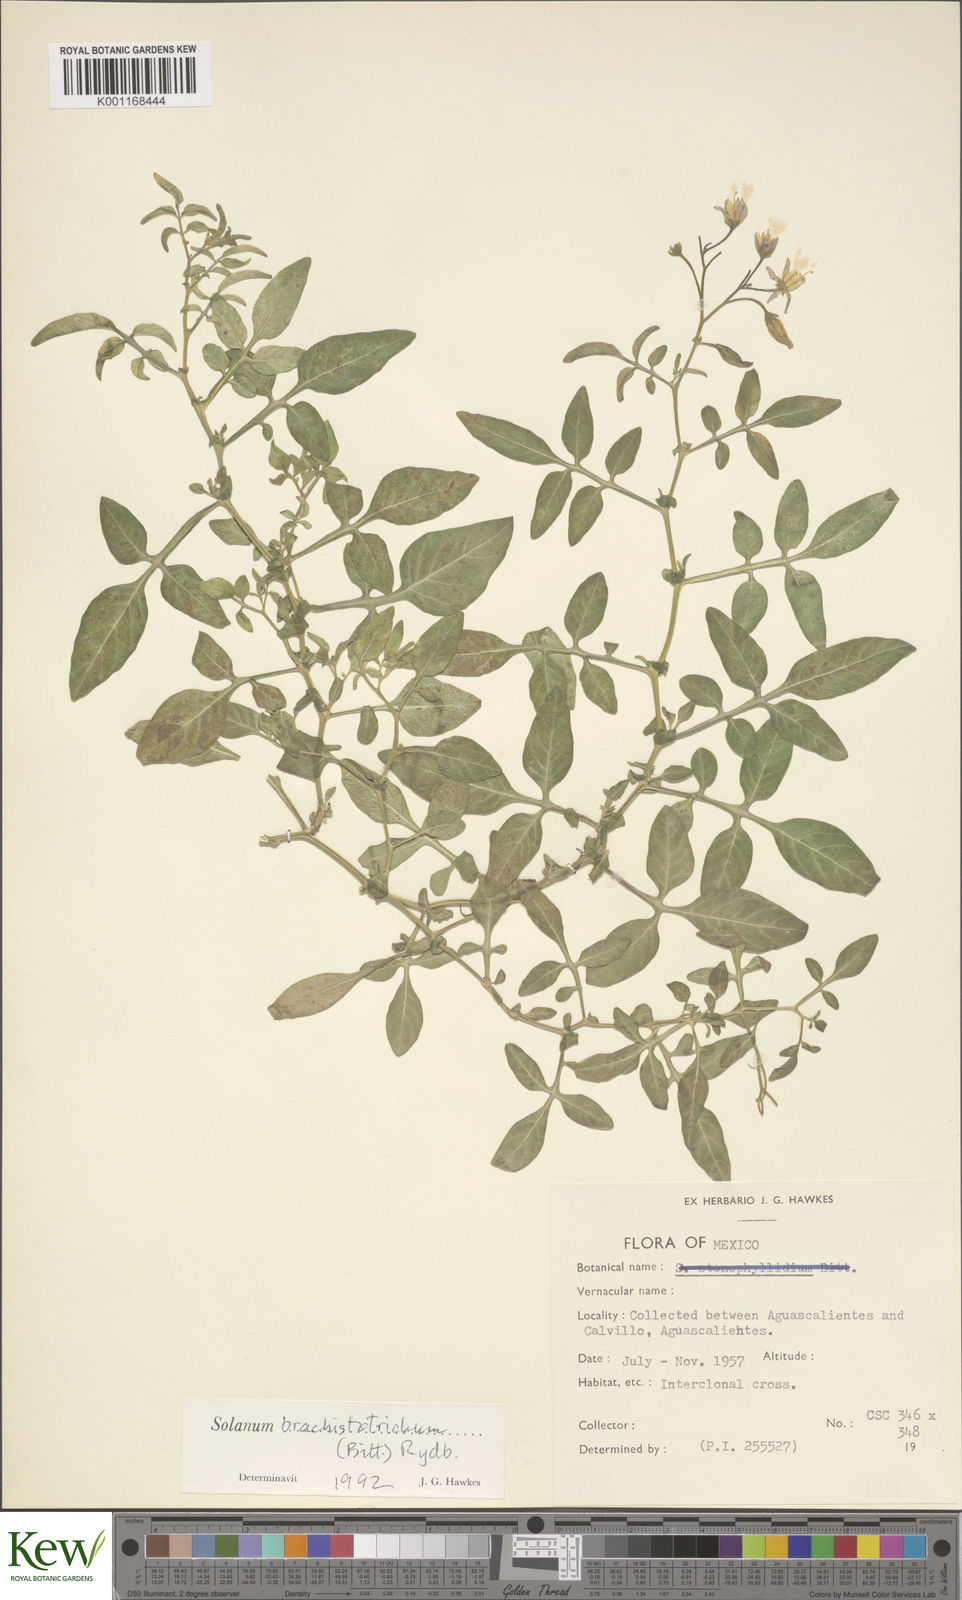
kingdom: Plantae
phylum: Tracheophyta
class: Magnoliopsida
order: Solanales
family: Solanaceae
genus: Solanum
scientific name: Solanum
